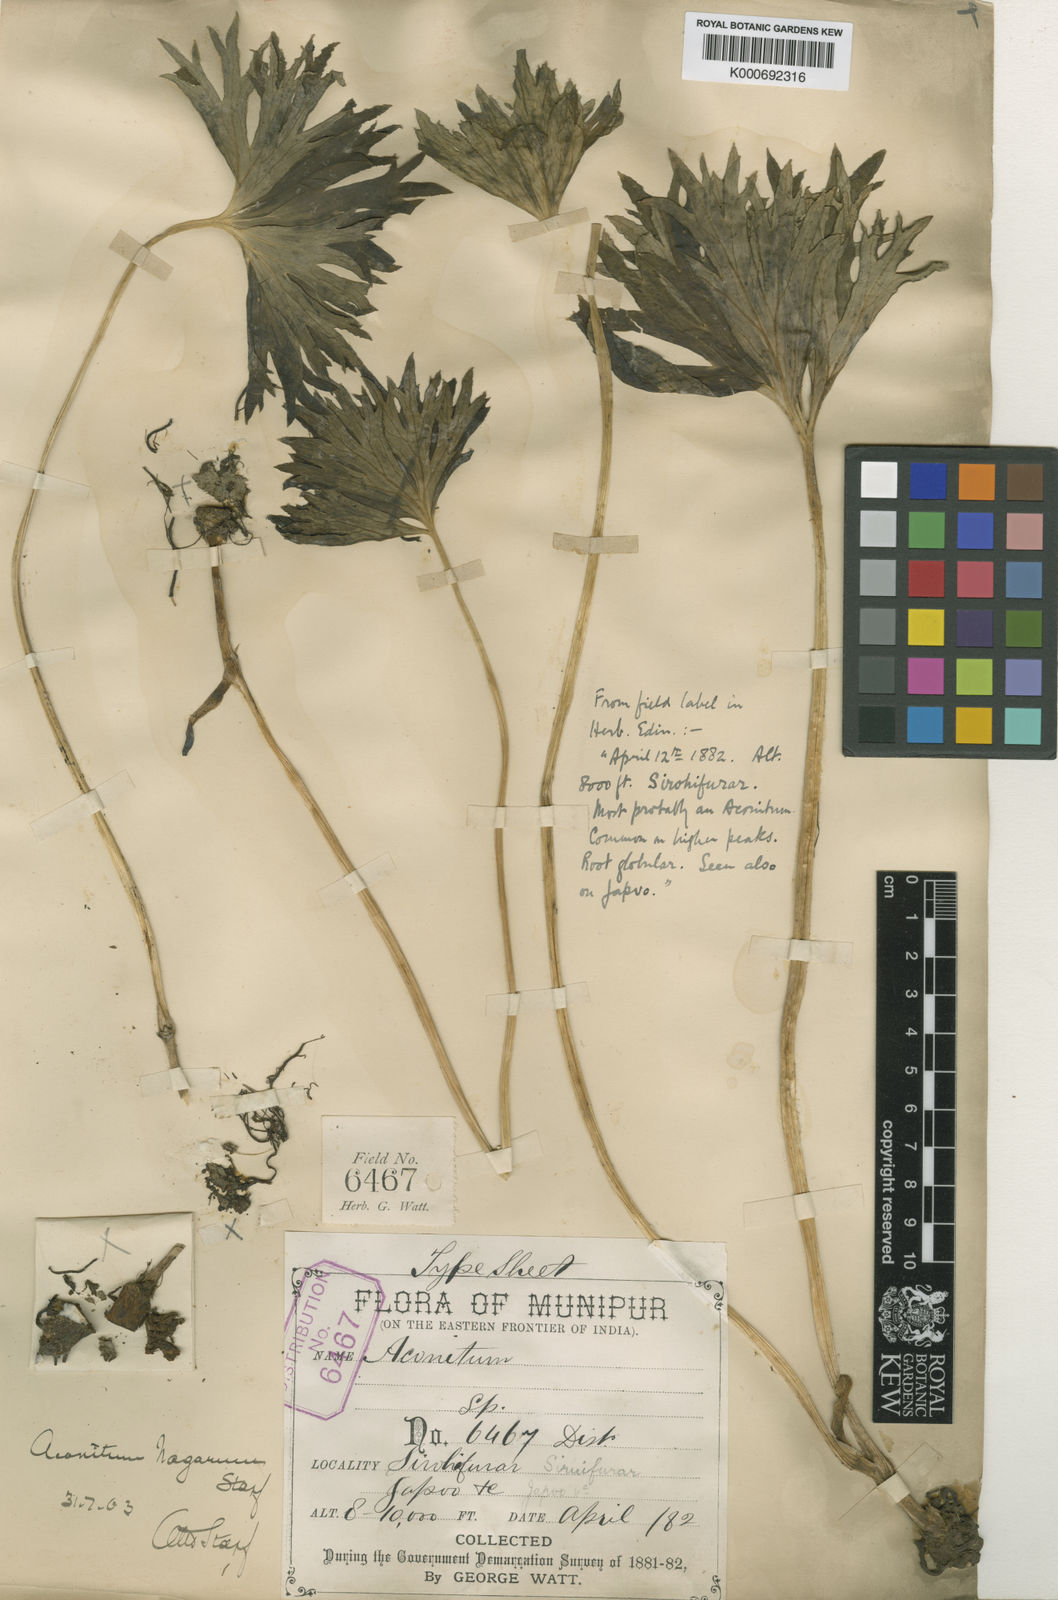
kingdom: Plantae
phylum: Tracheophyta
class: Magnoliopsida
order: Ranunculales
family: Ranunculaceae
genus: Aconitum
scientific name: Aconitum nagarum
